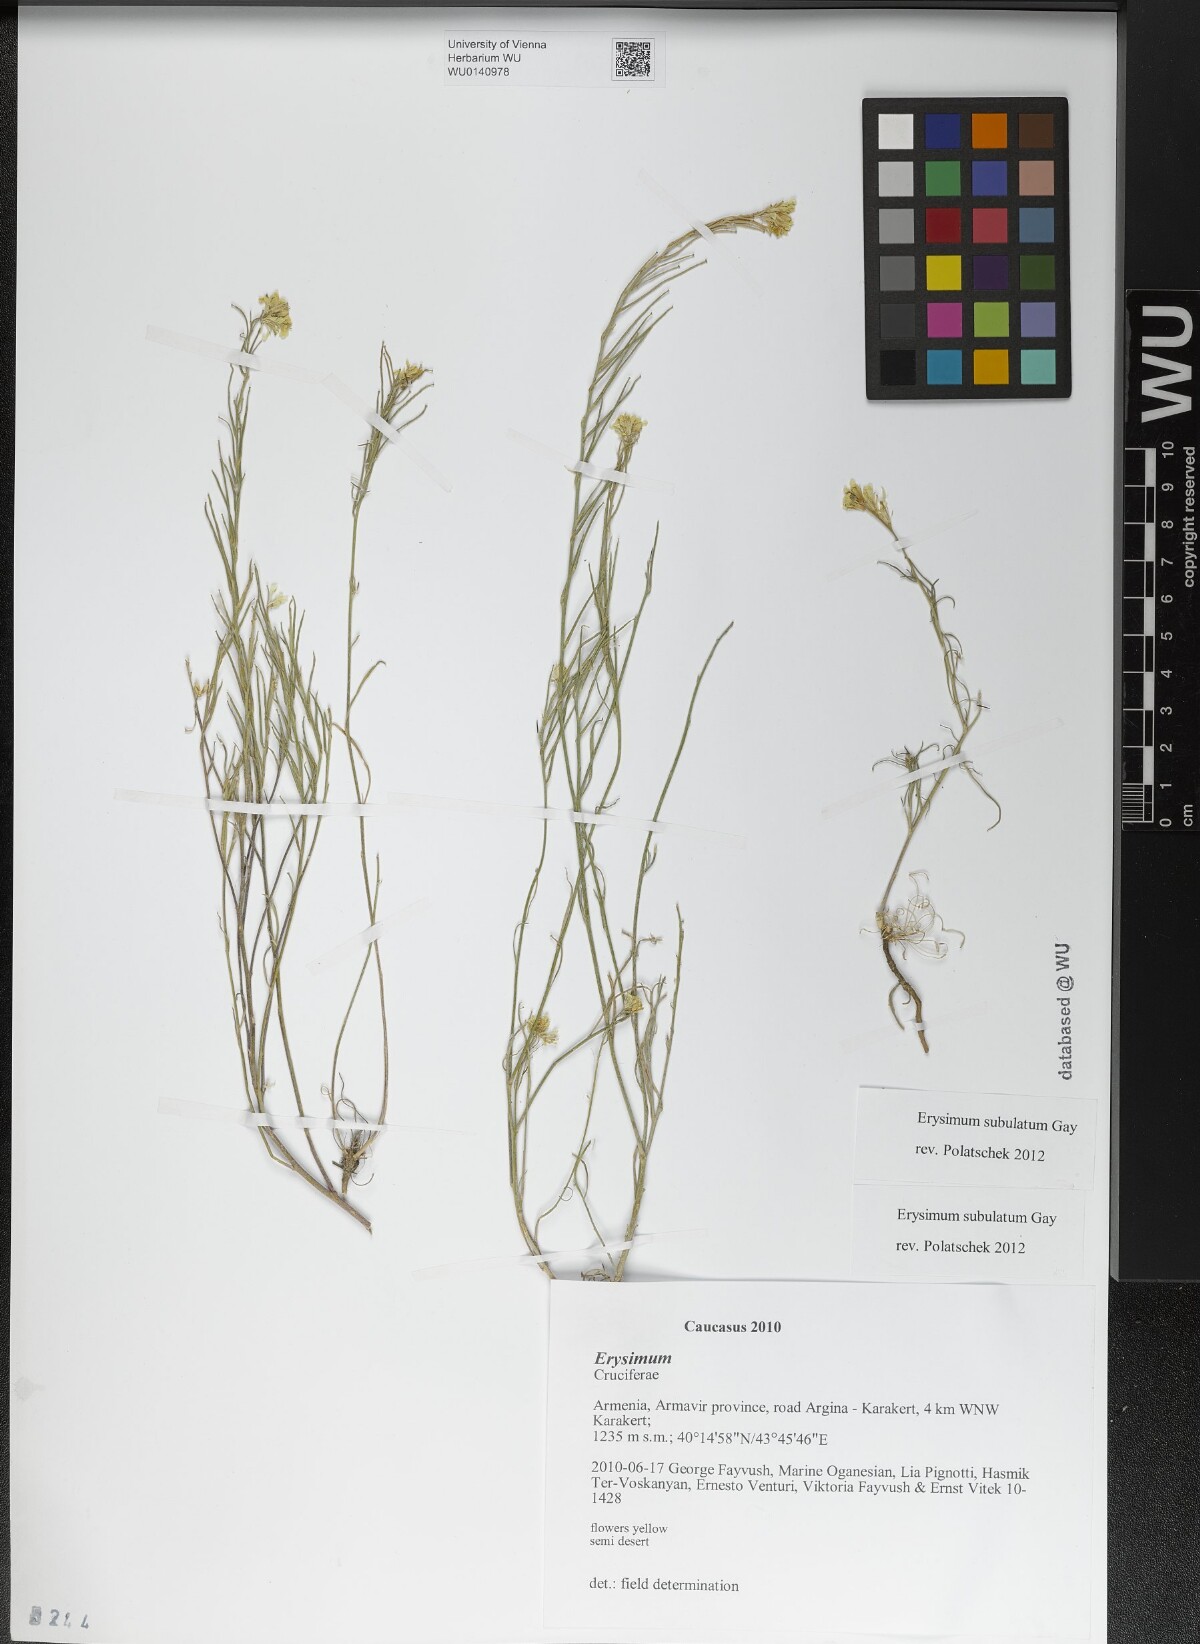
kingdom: Plantae
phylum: Tracheophyta
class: Magnoliopsida
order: Brassicales
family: Brassicaceae
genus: Erysimum
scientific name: Erysimum subulatum
